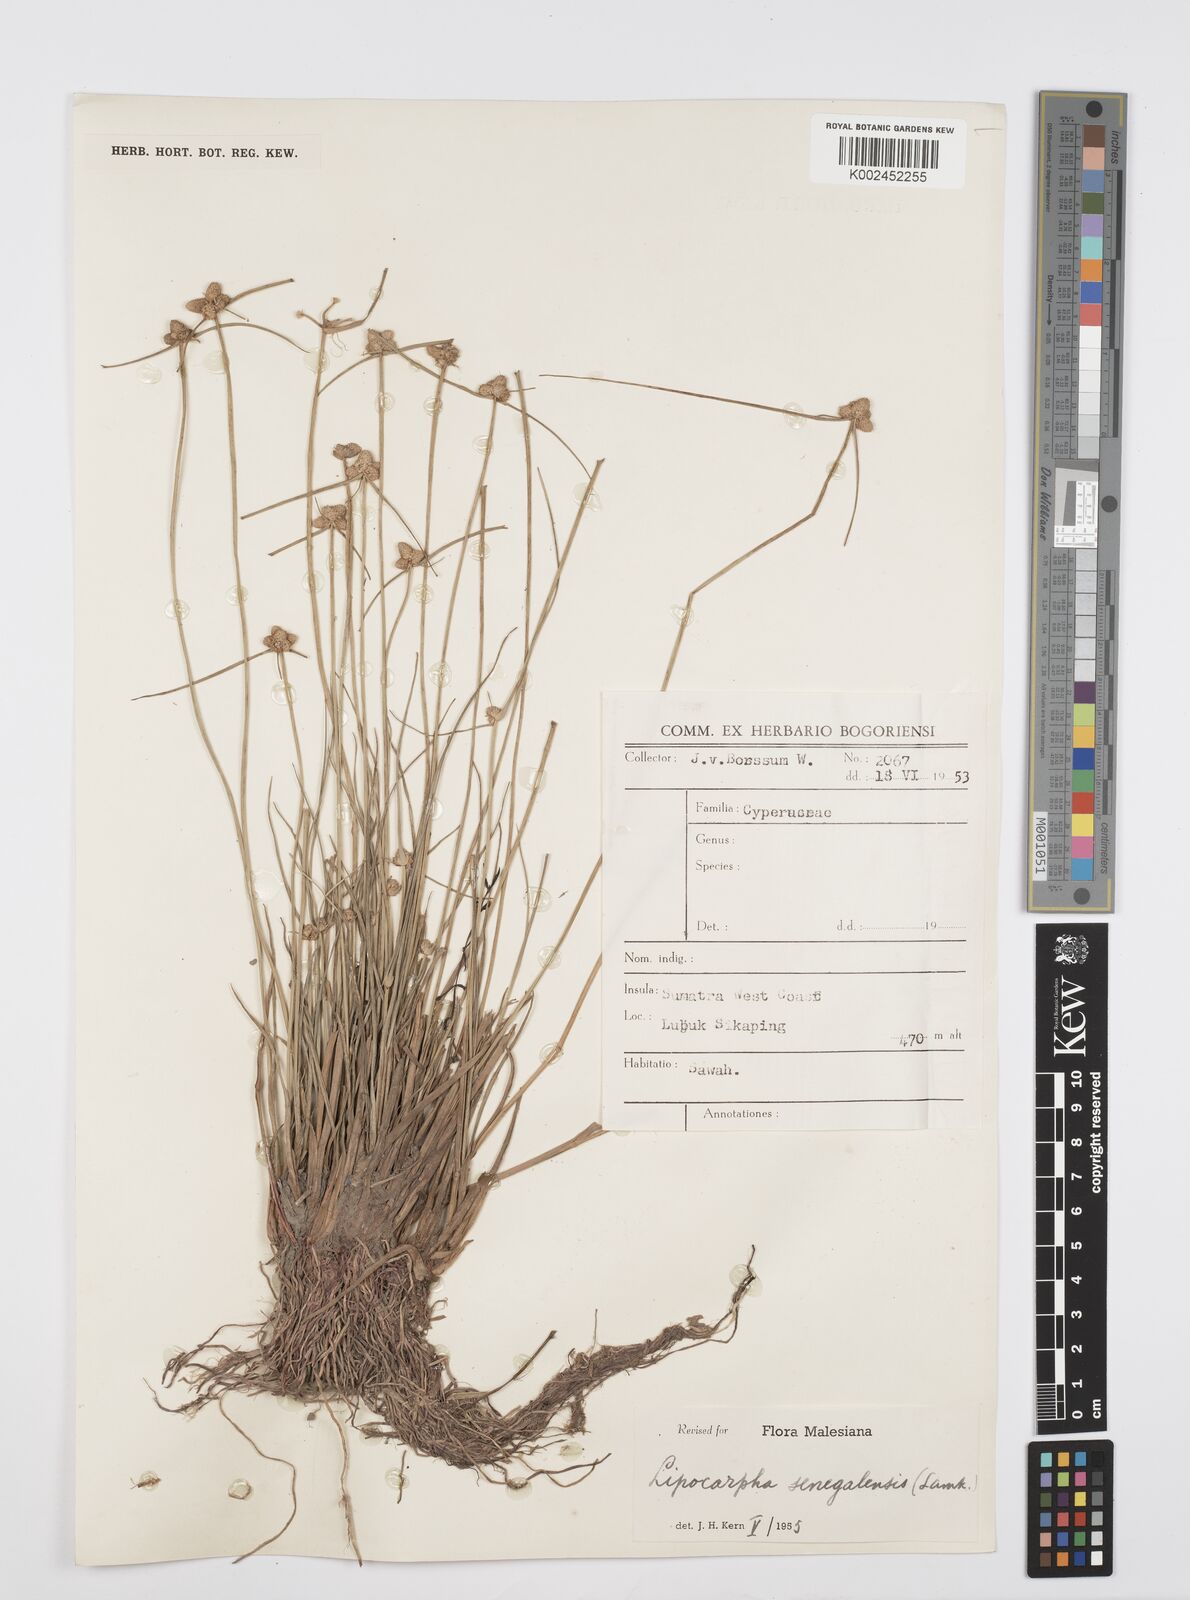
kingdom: Plantae
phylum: Tracheophyta
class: Liliopsida
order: Poales
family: Cyperaceae
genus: Cyperus
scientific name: Cyperus
